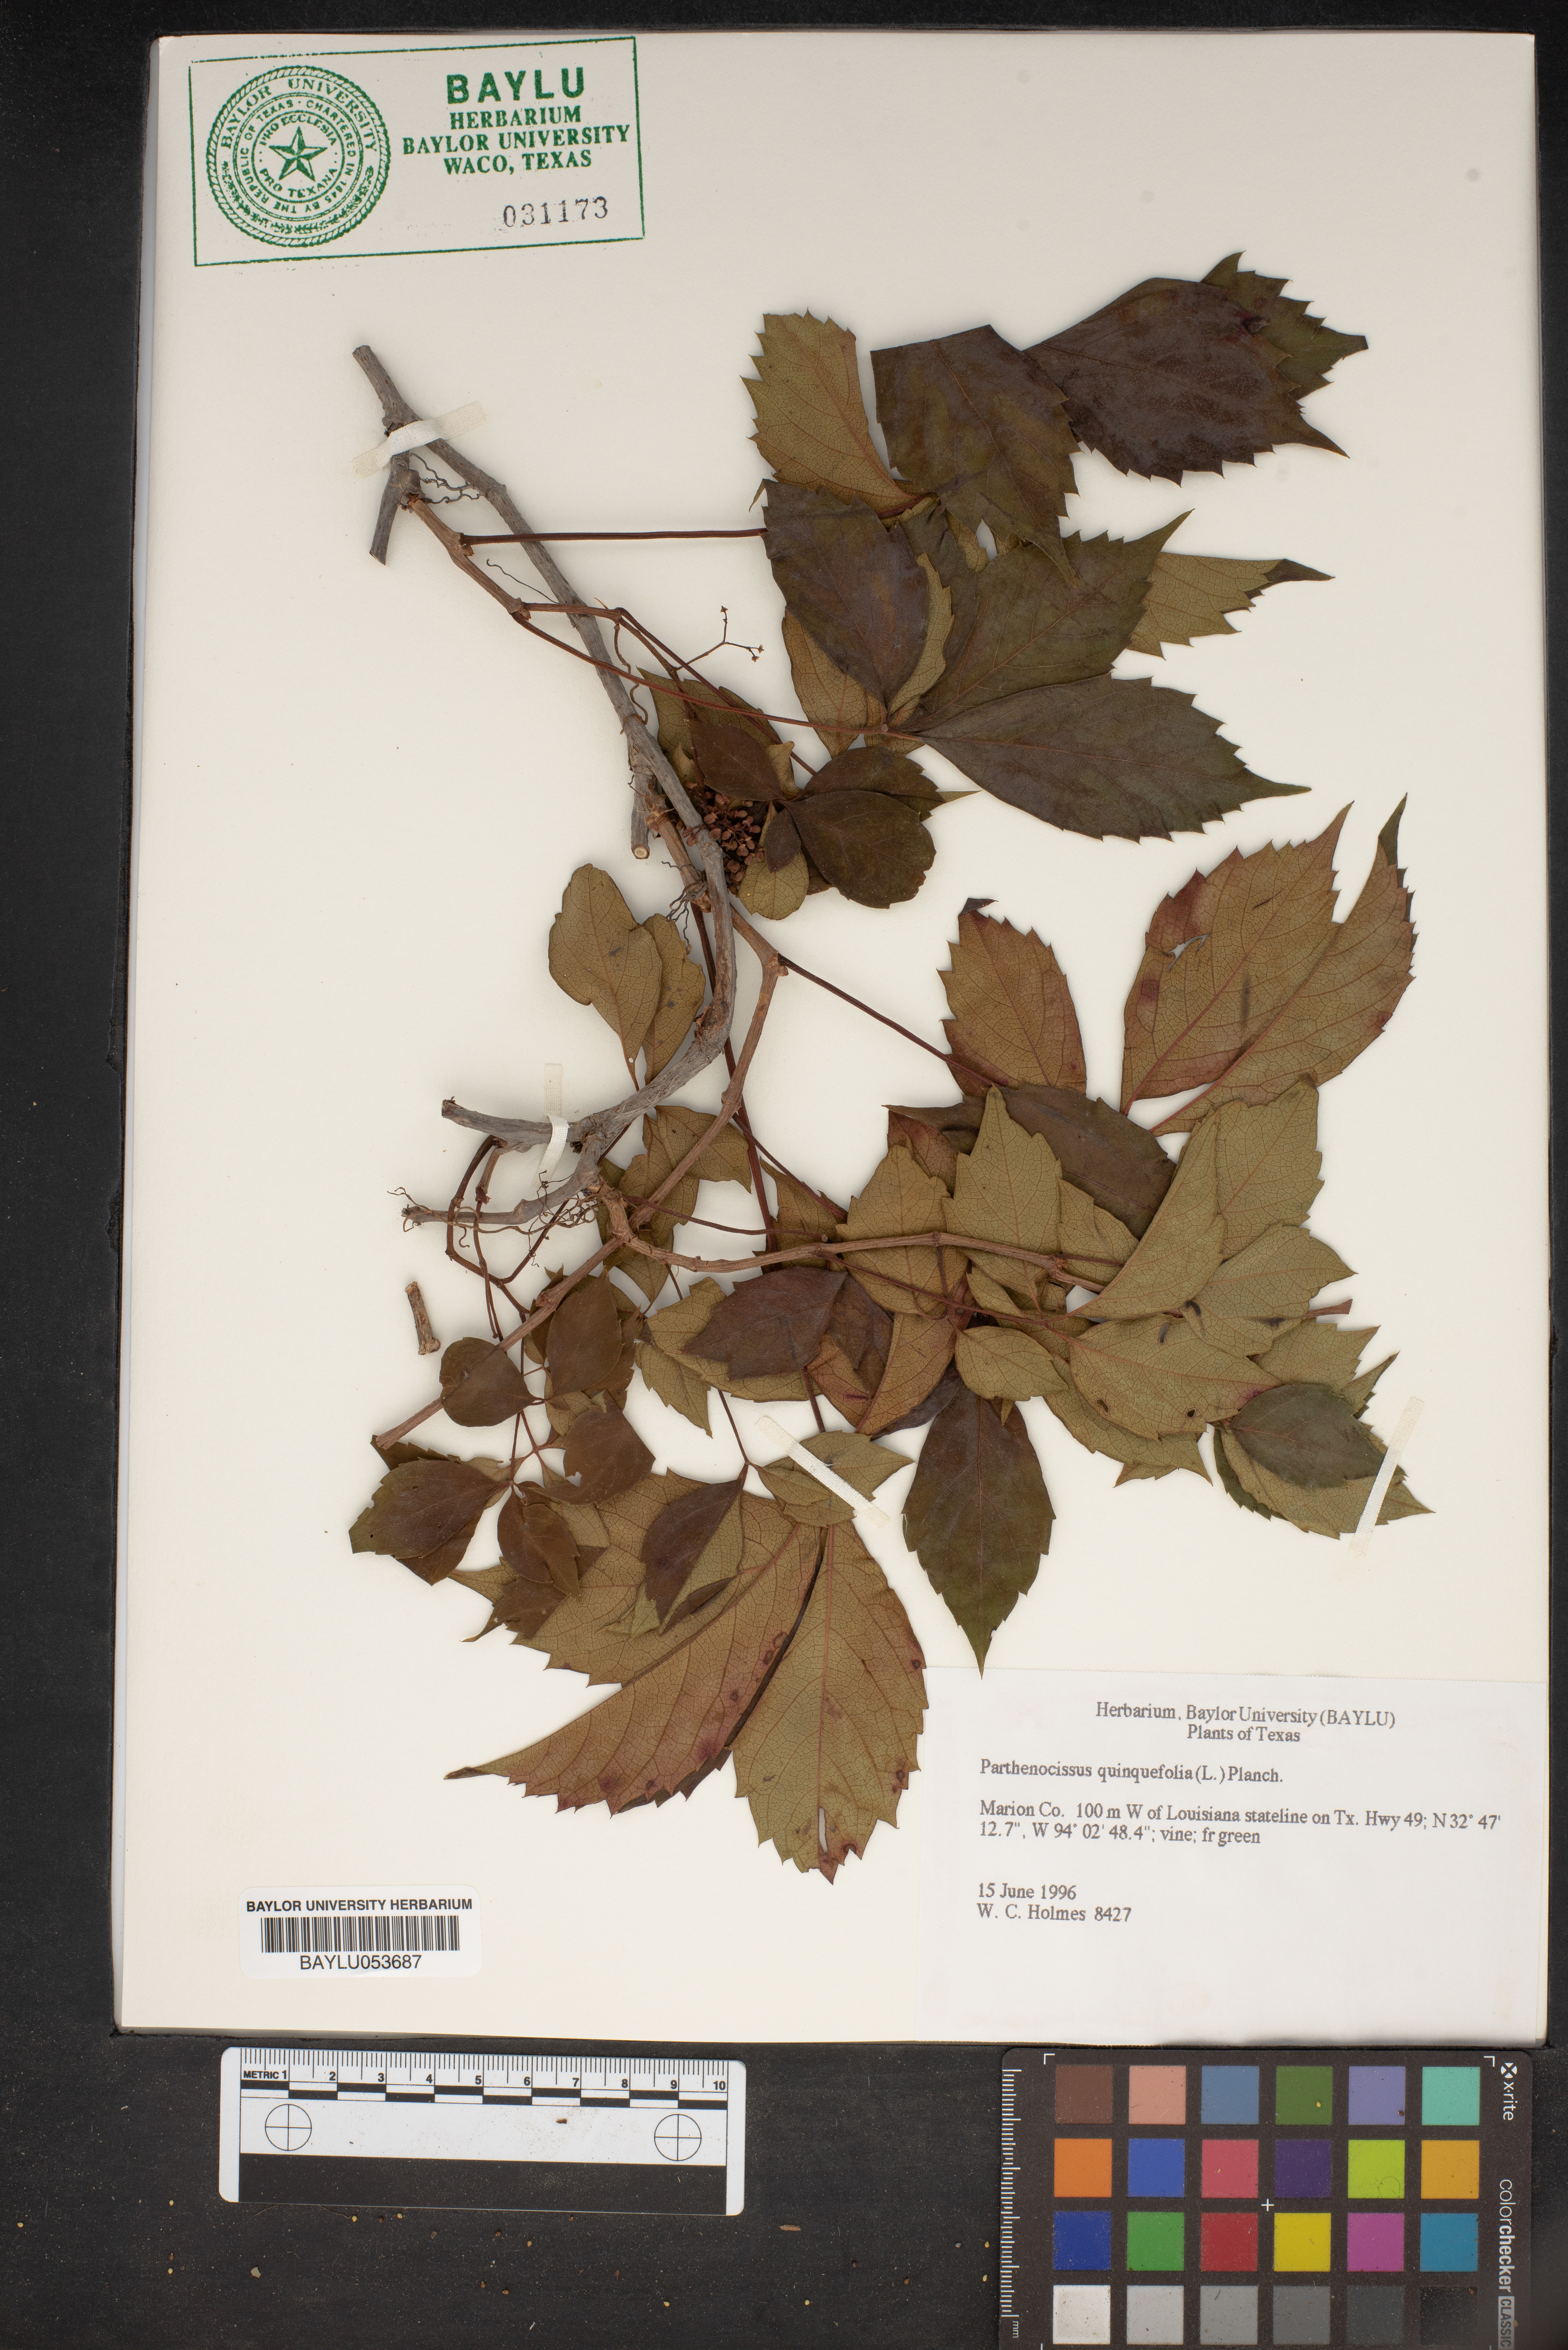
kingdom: Plantae
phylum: Tracheophyta
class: Magnoliopsida
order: Vitales
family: Vitaceae
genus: Parthenocissus
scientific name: Parthenocissus quinquefolia
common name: Virginia-creeper
